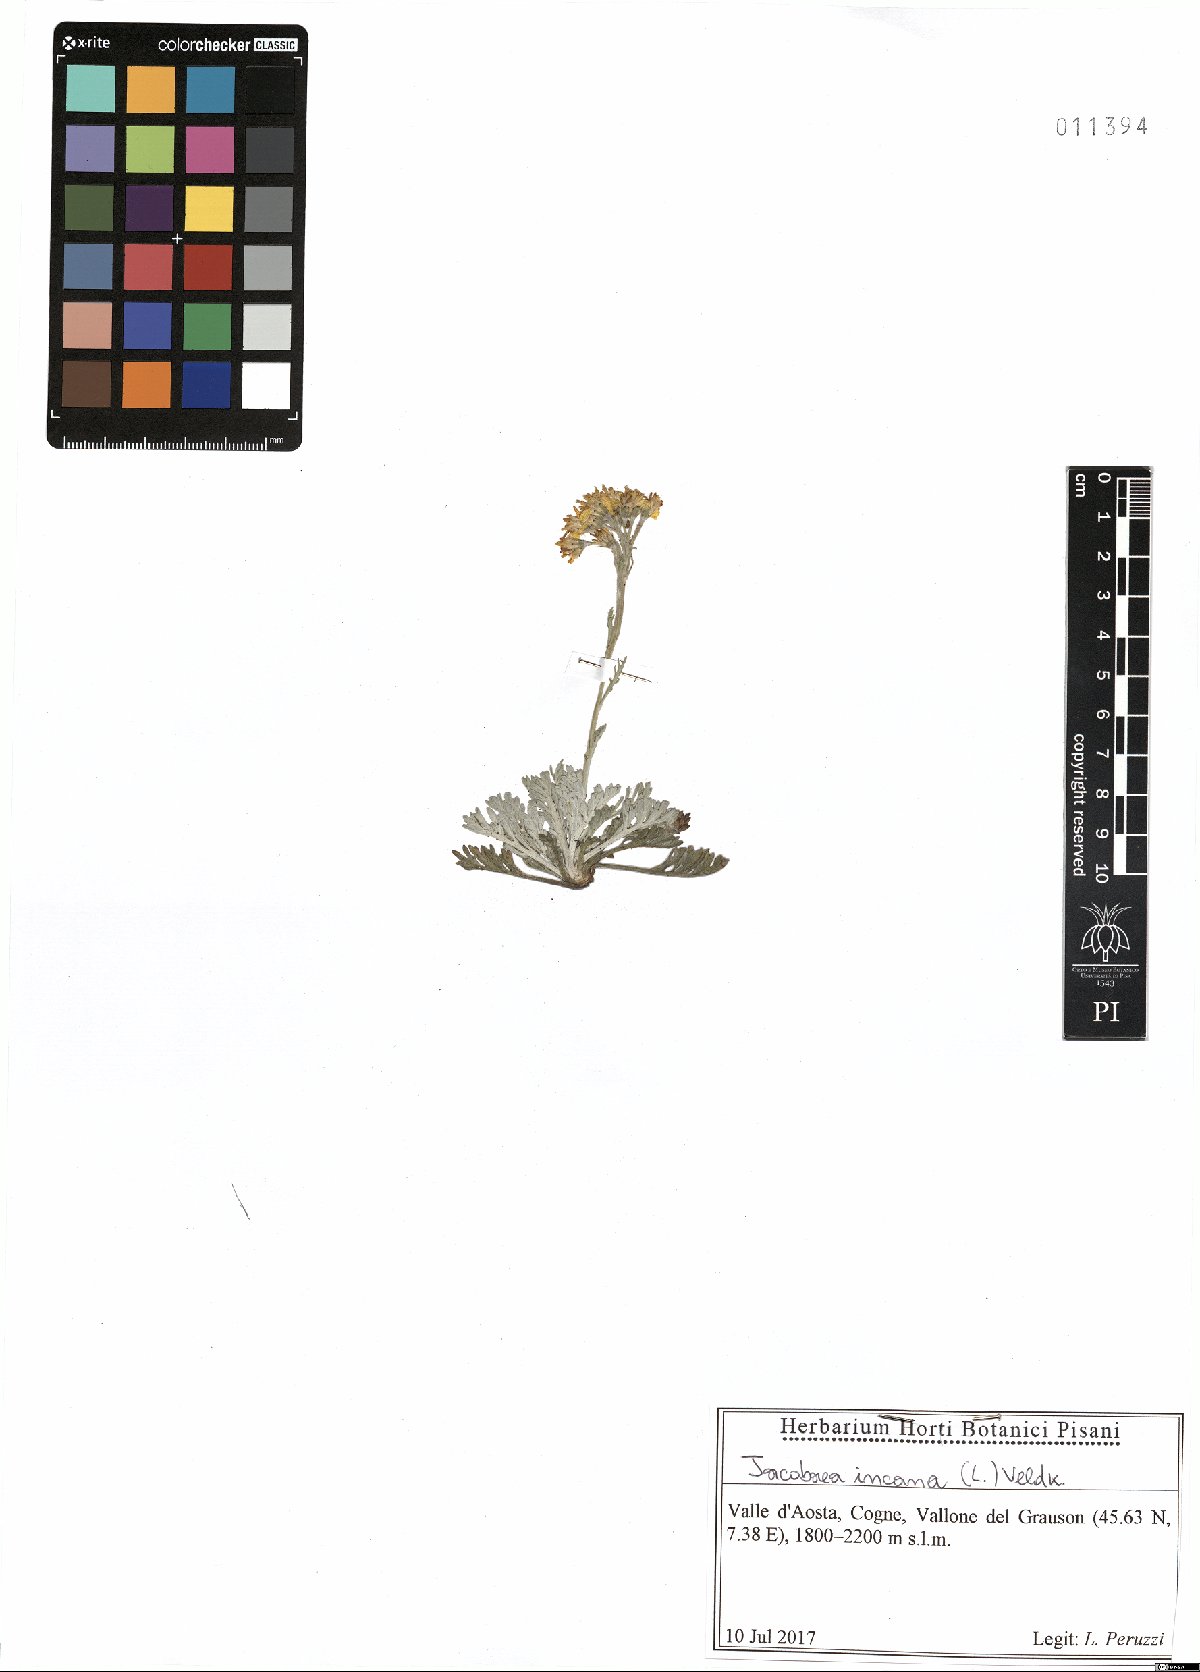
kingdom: Plantae
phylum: Tracheophyta
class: Magnoliopsida
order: Asterales
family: Asteraceae
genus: Jacobaea
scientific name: Jacobaea incana
